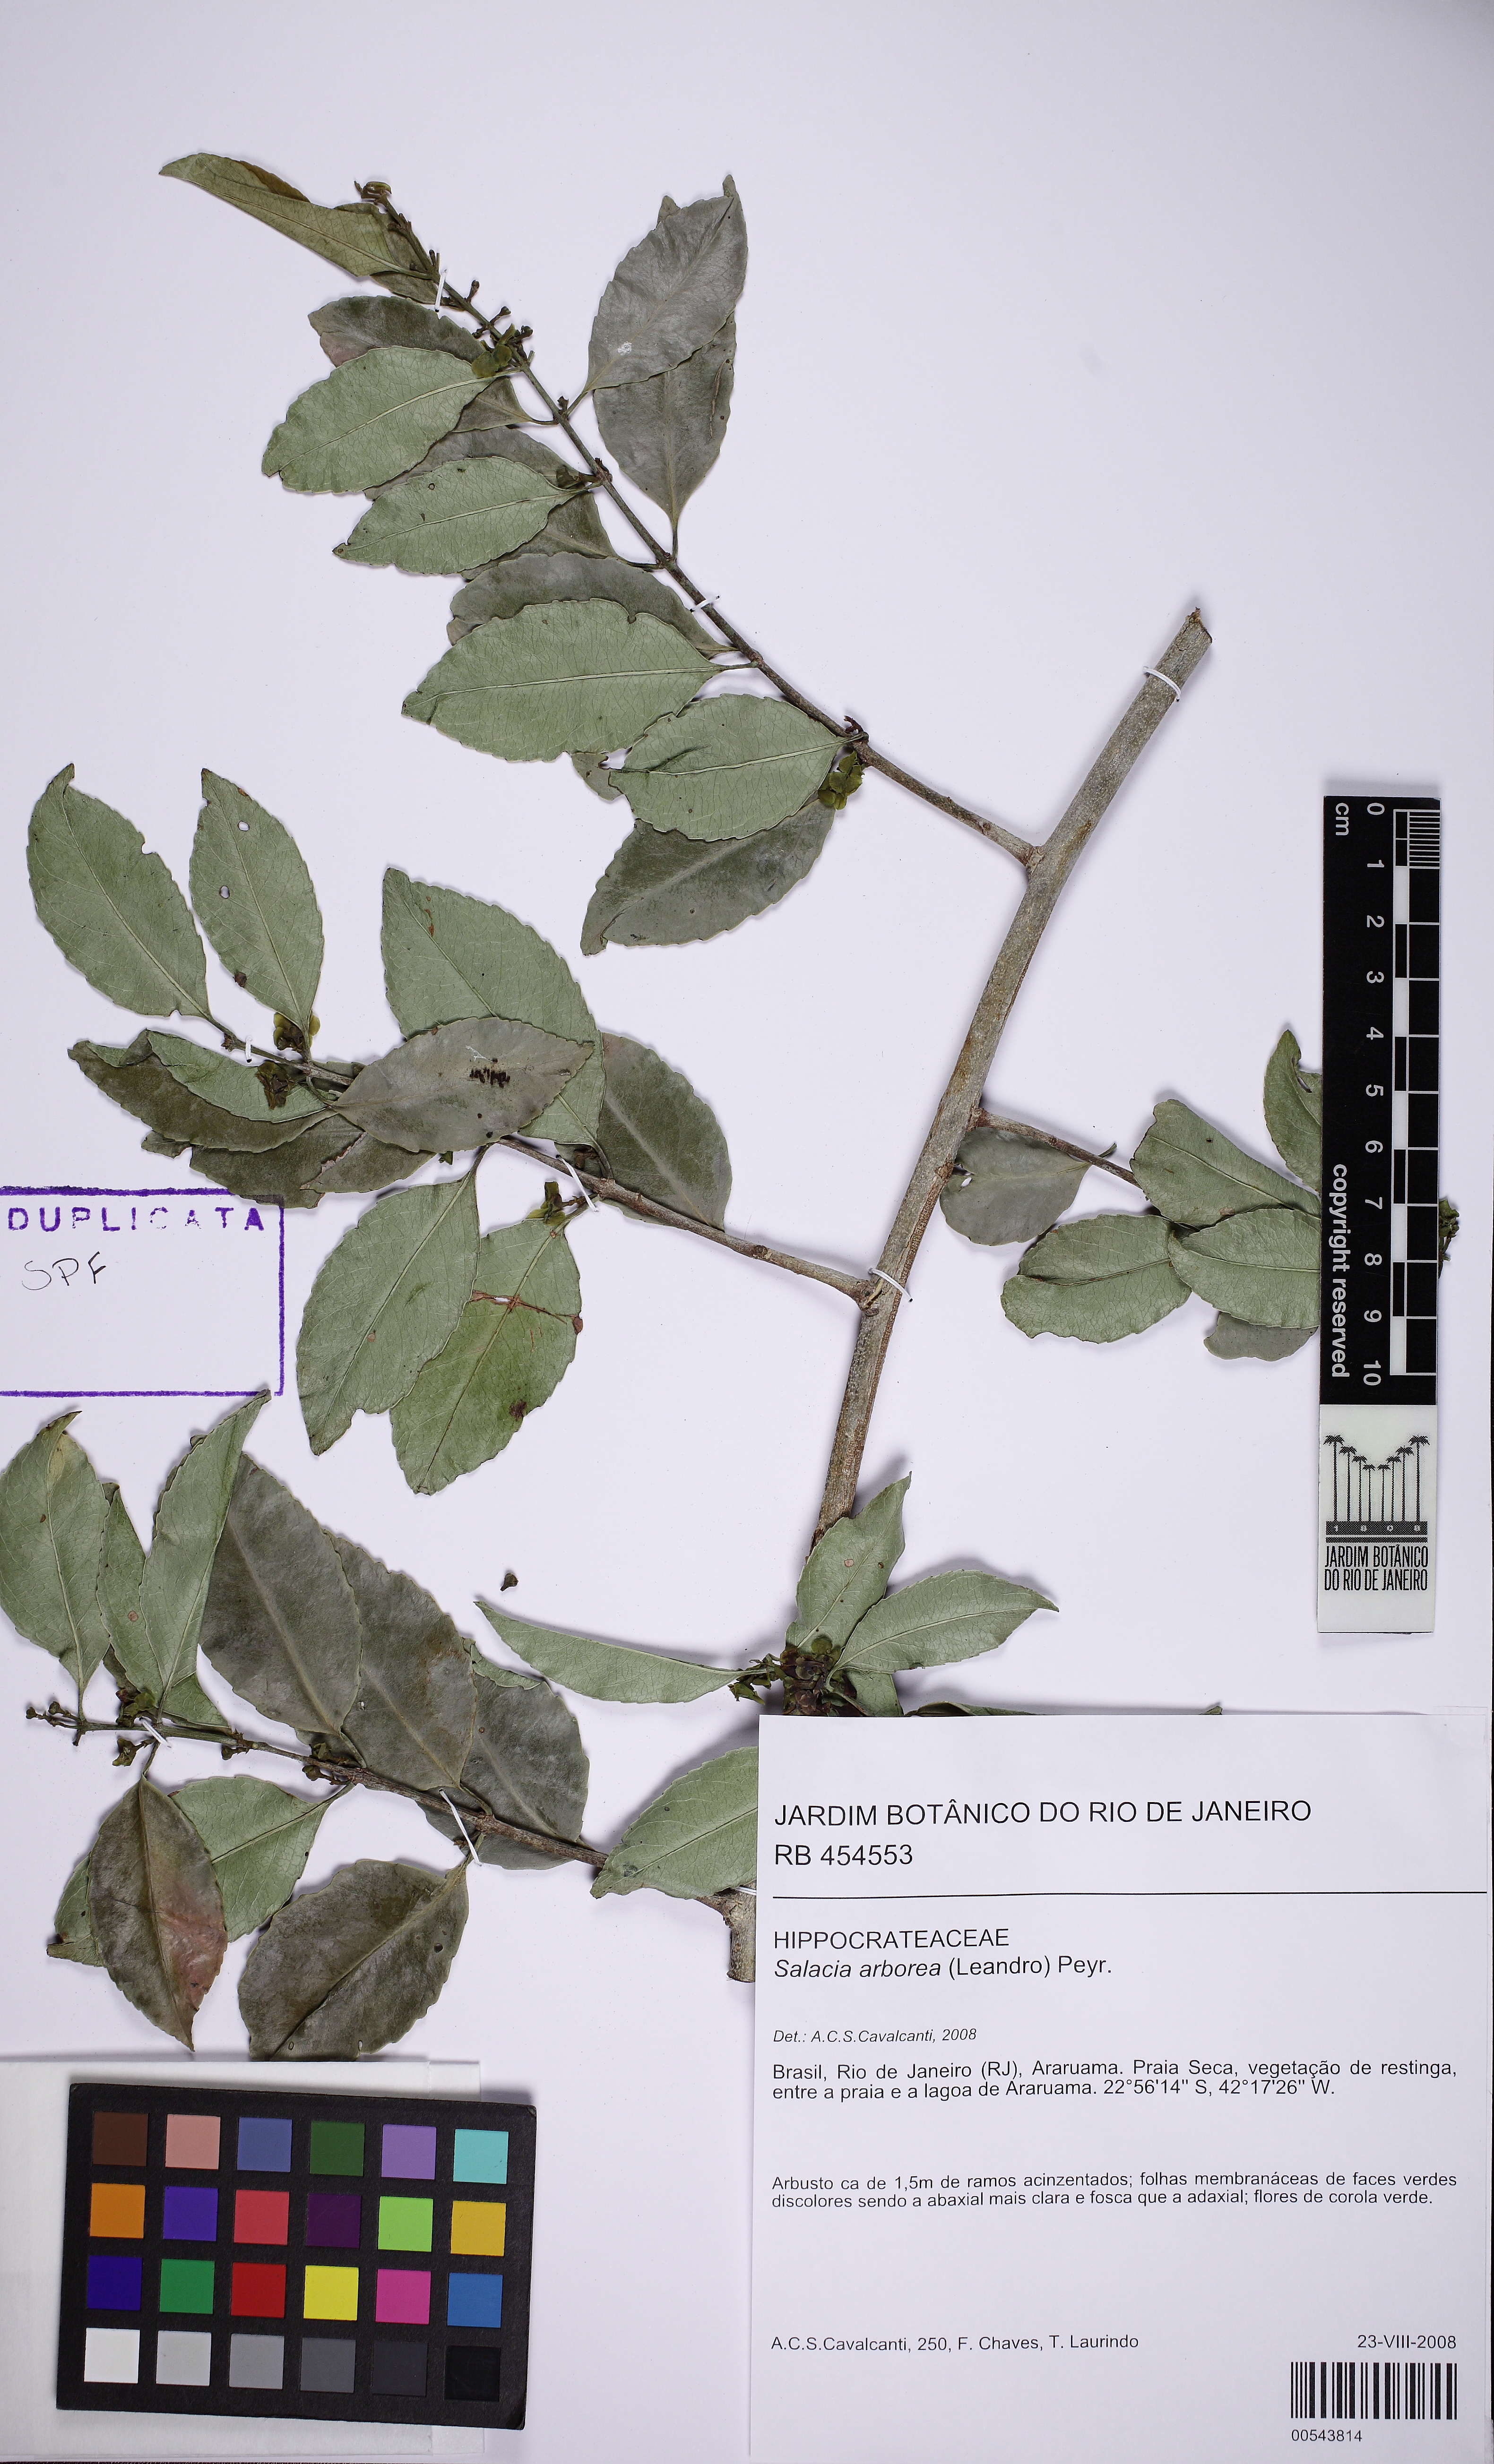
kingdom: Plantae
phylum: Tracheophyta
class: Magnoliopsida
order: Celastrales
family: Celastraceae
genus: Salacia
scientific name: Salacia arborea
